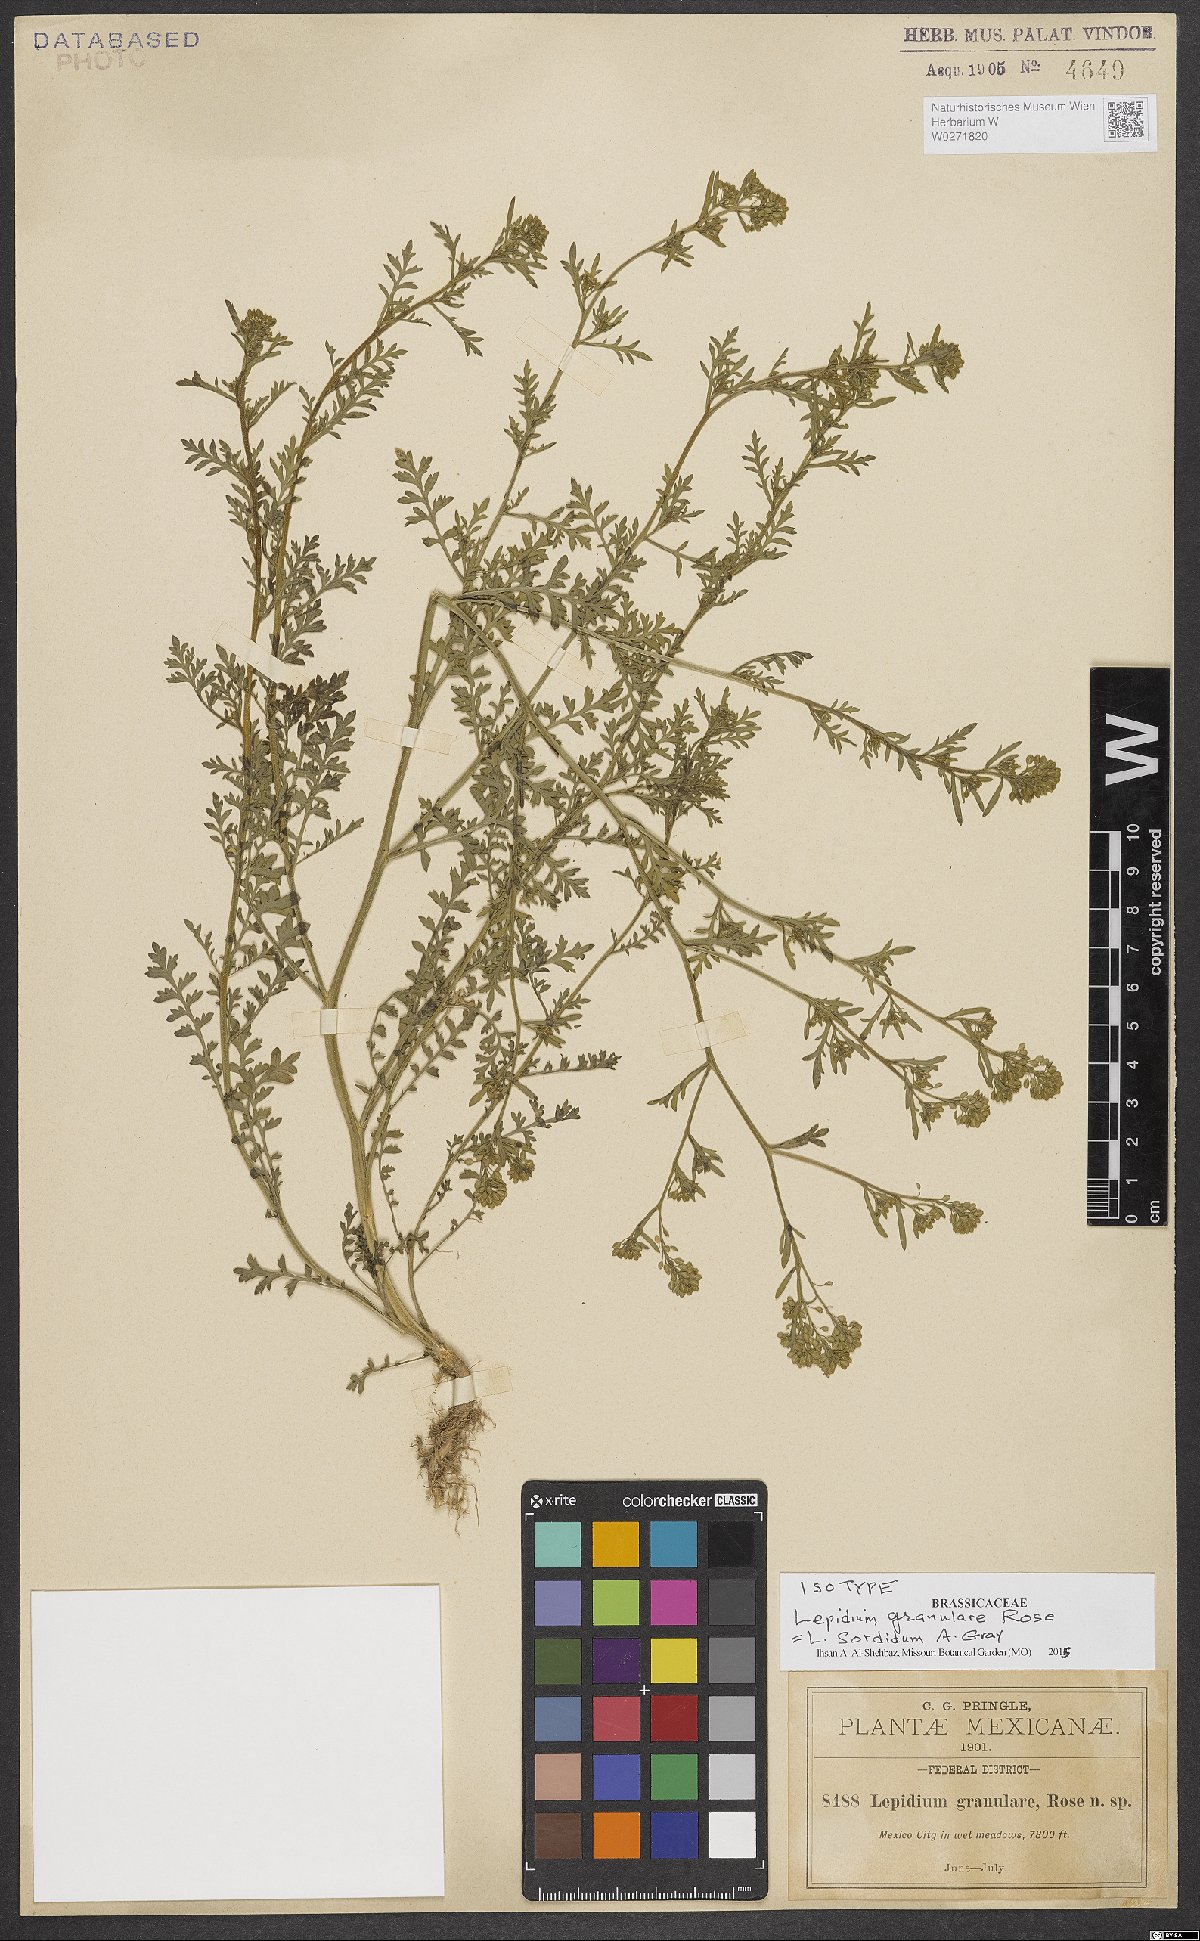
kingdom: Plantae
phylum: Tracheophyta
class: Magnoliopsida
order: Brassicales
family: Brassicaceae
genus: Lepidium
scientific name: Lepidium sordidum
